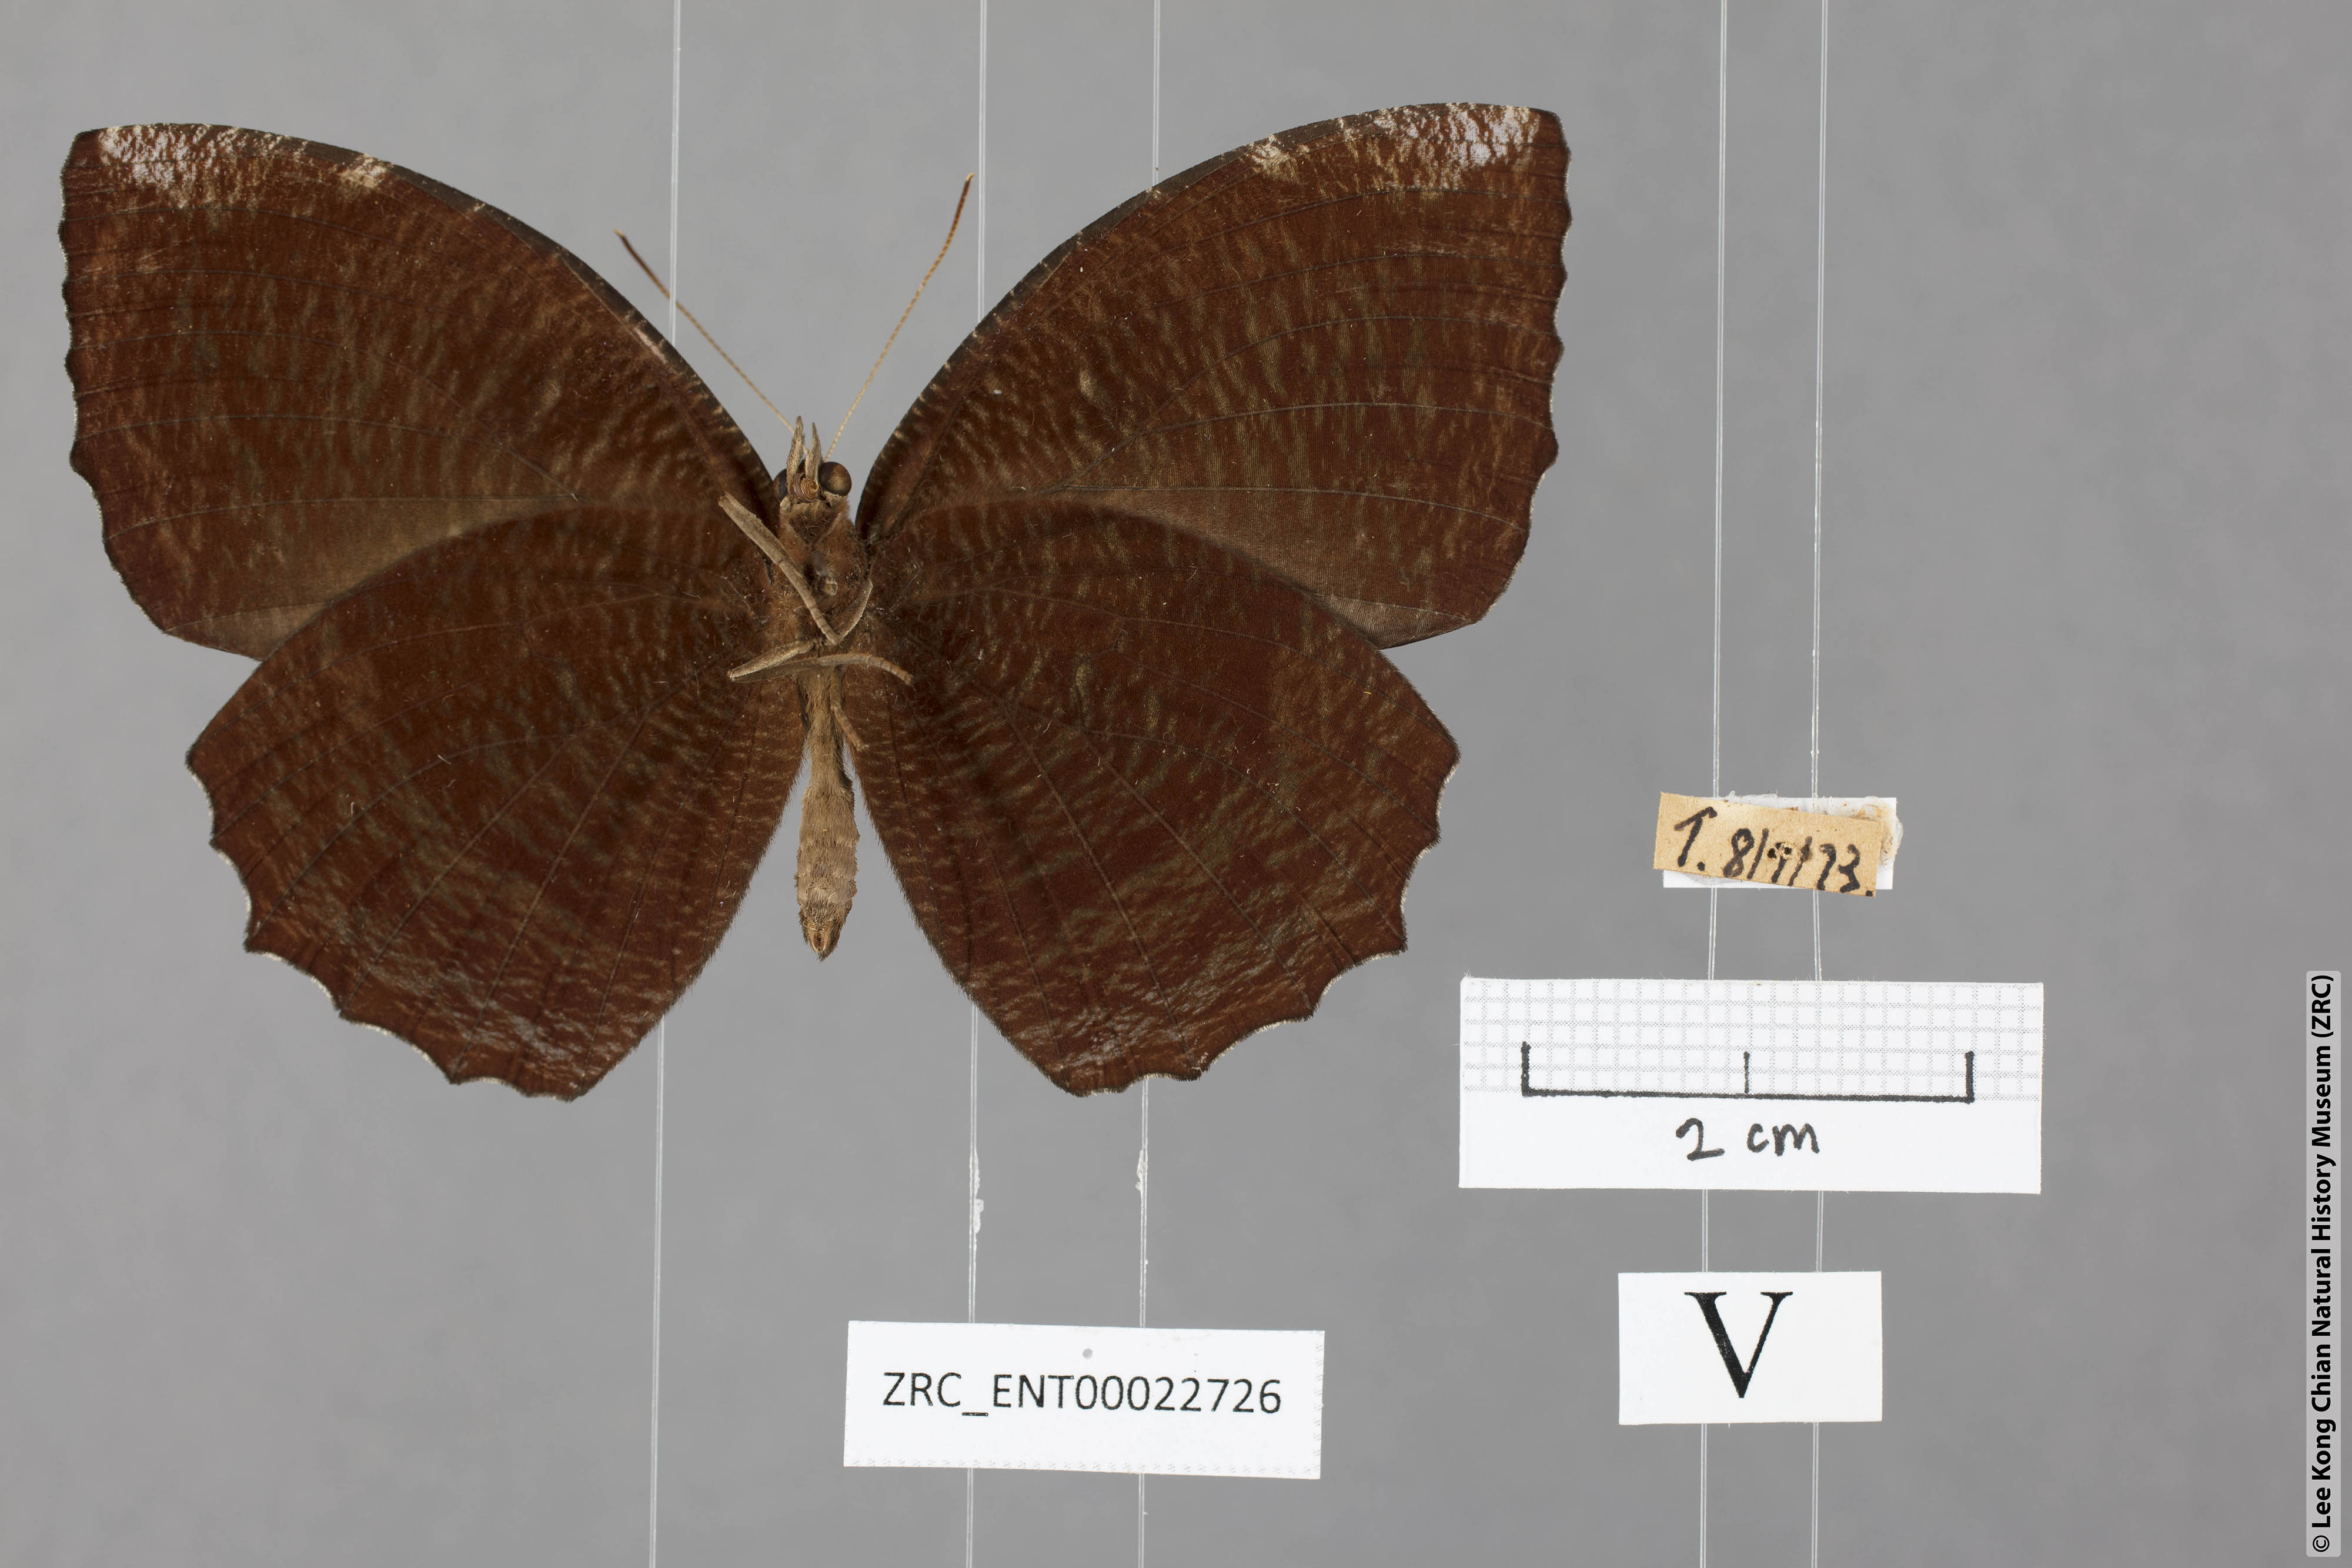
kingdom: Animalia
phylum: Arthropoda
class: Insecta
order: Lepidoptera
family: Nymphalidae
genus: Elymnias
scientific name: Elymnias hypermnestra
